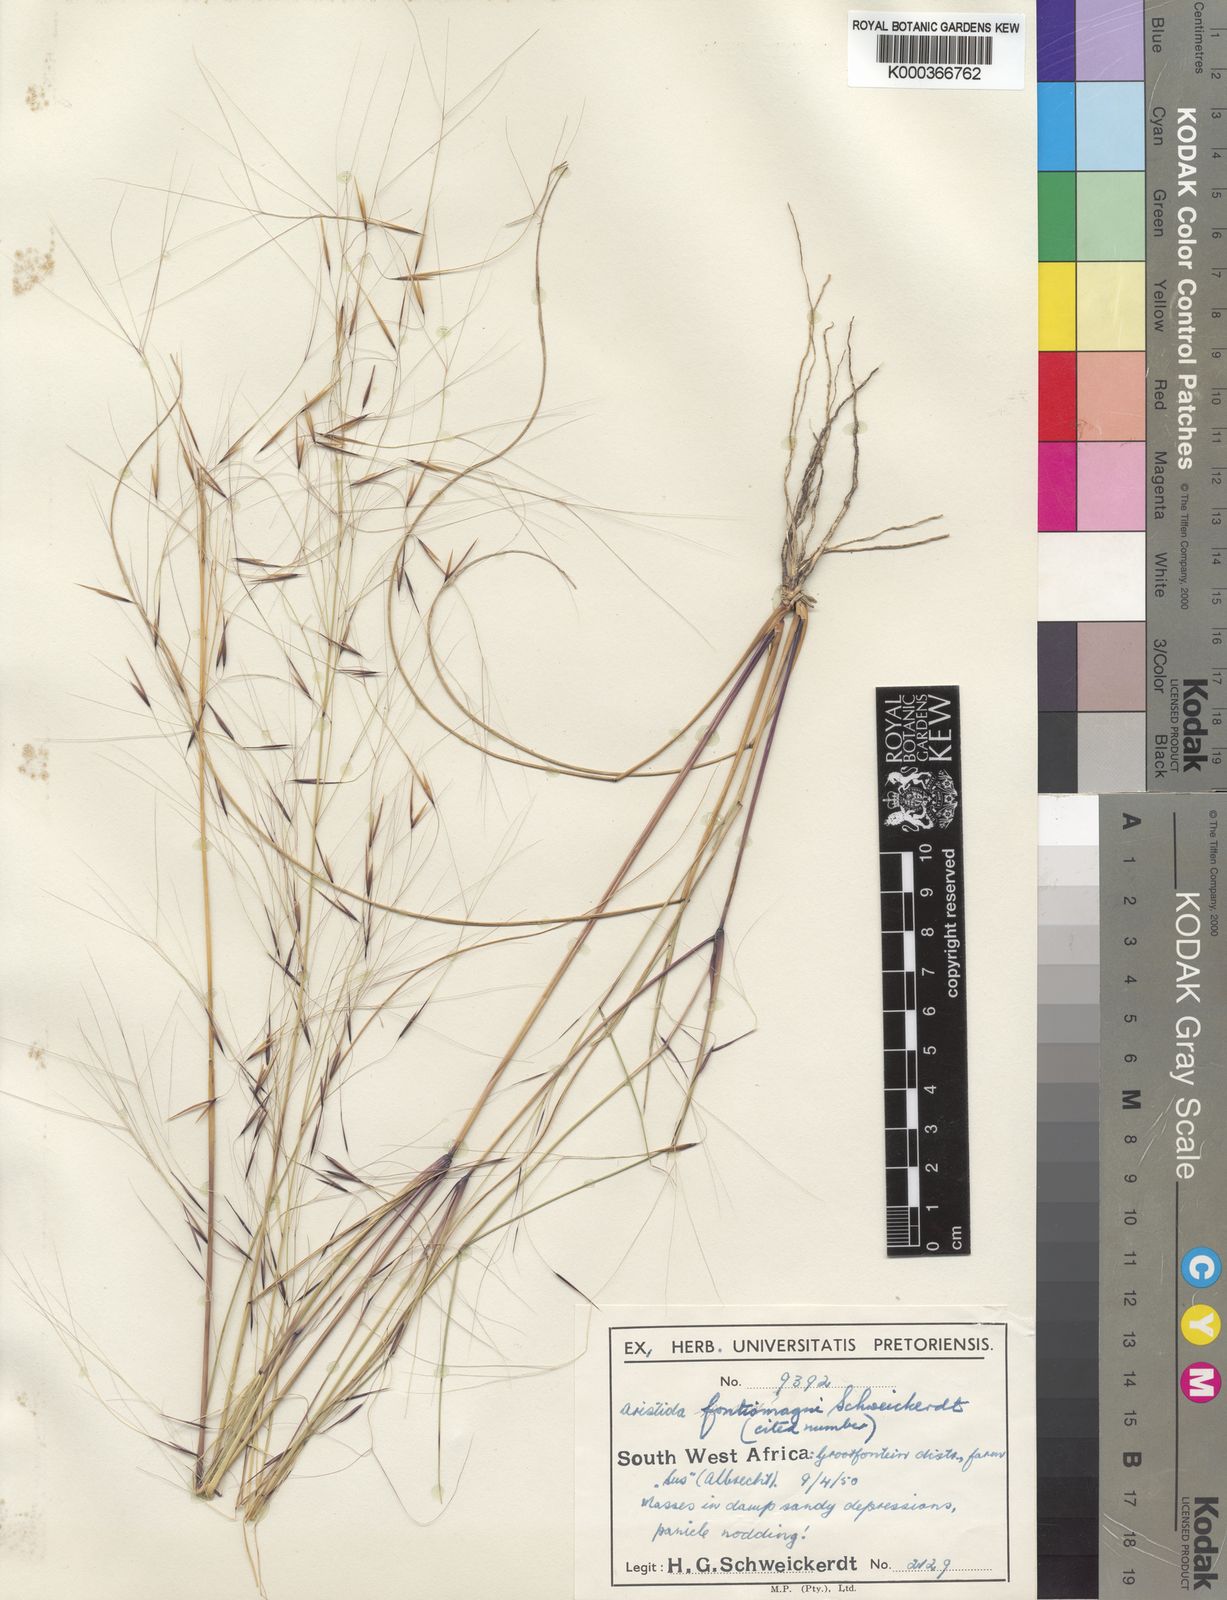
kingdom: Plantae
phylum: Tracheophyta
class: Liliopsida
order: Poales
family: Poaceae
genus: Aristida
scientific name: Aristida stipoides
